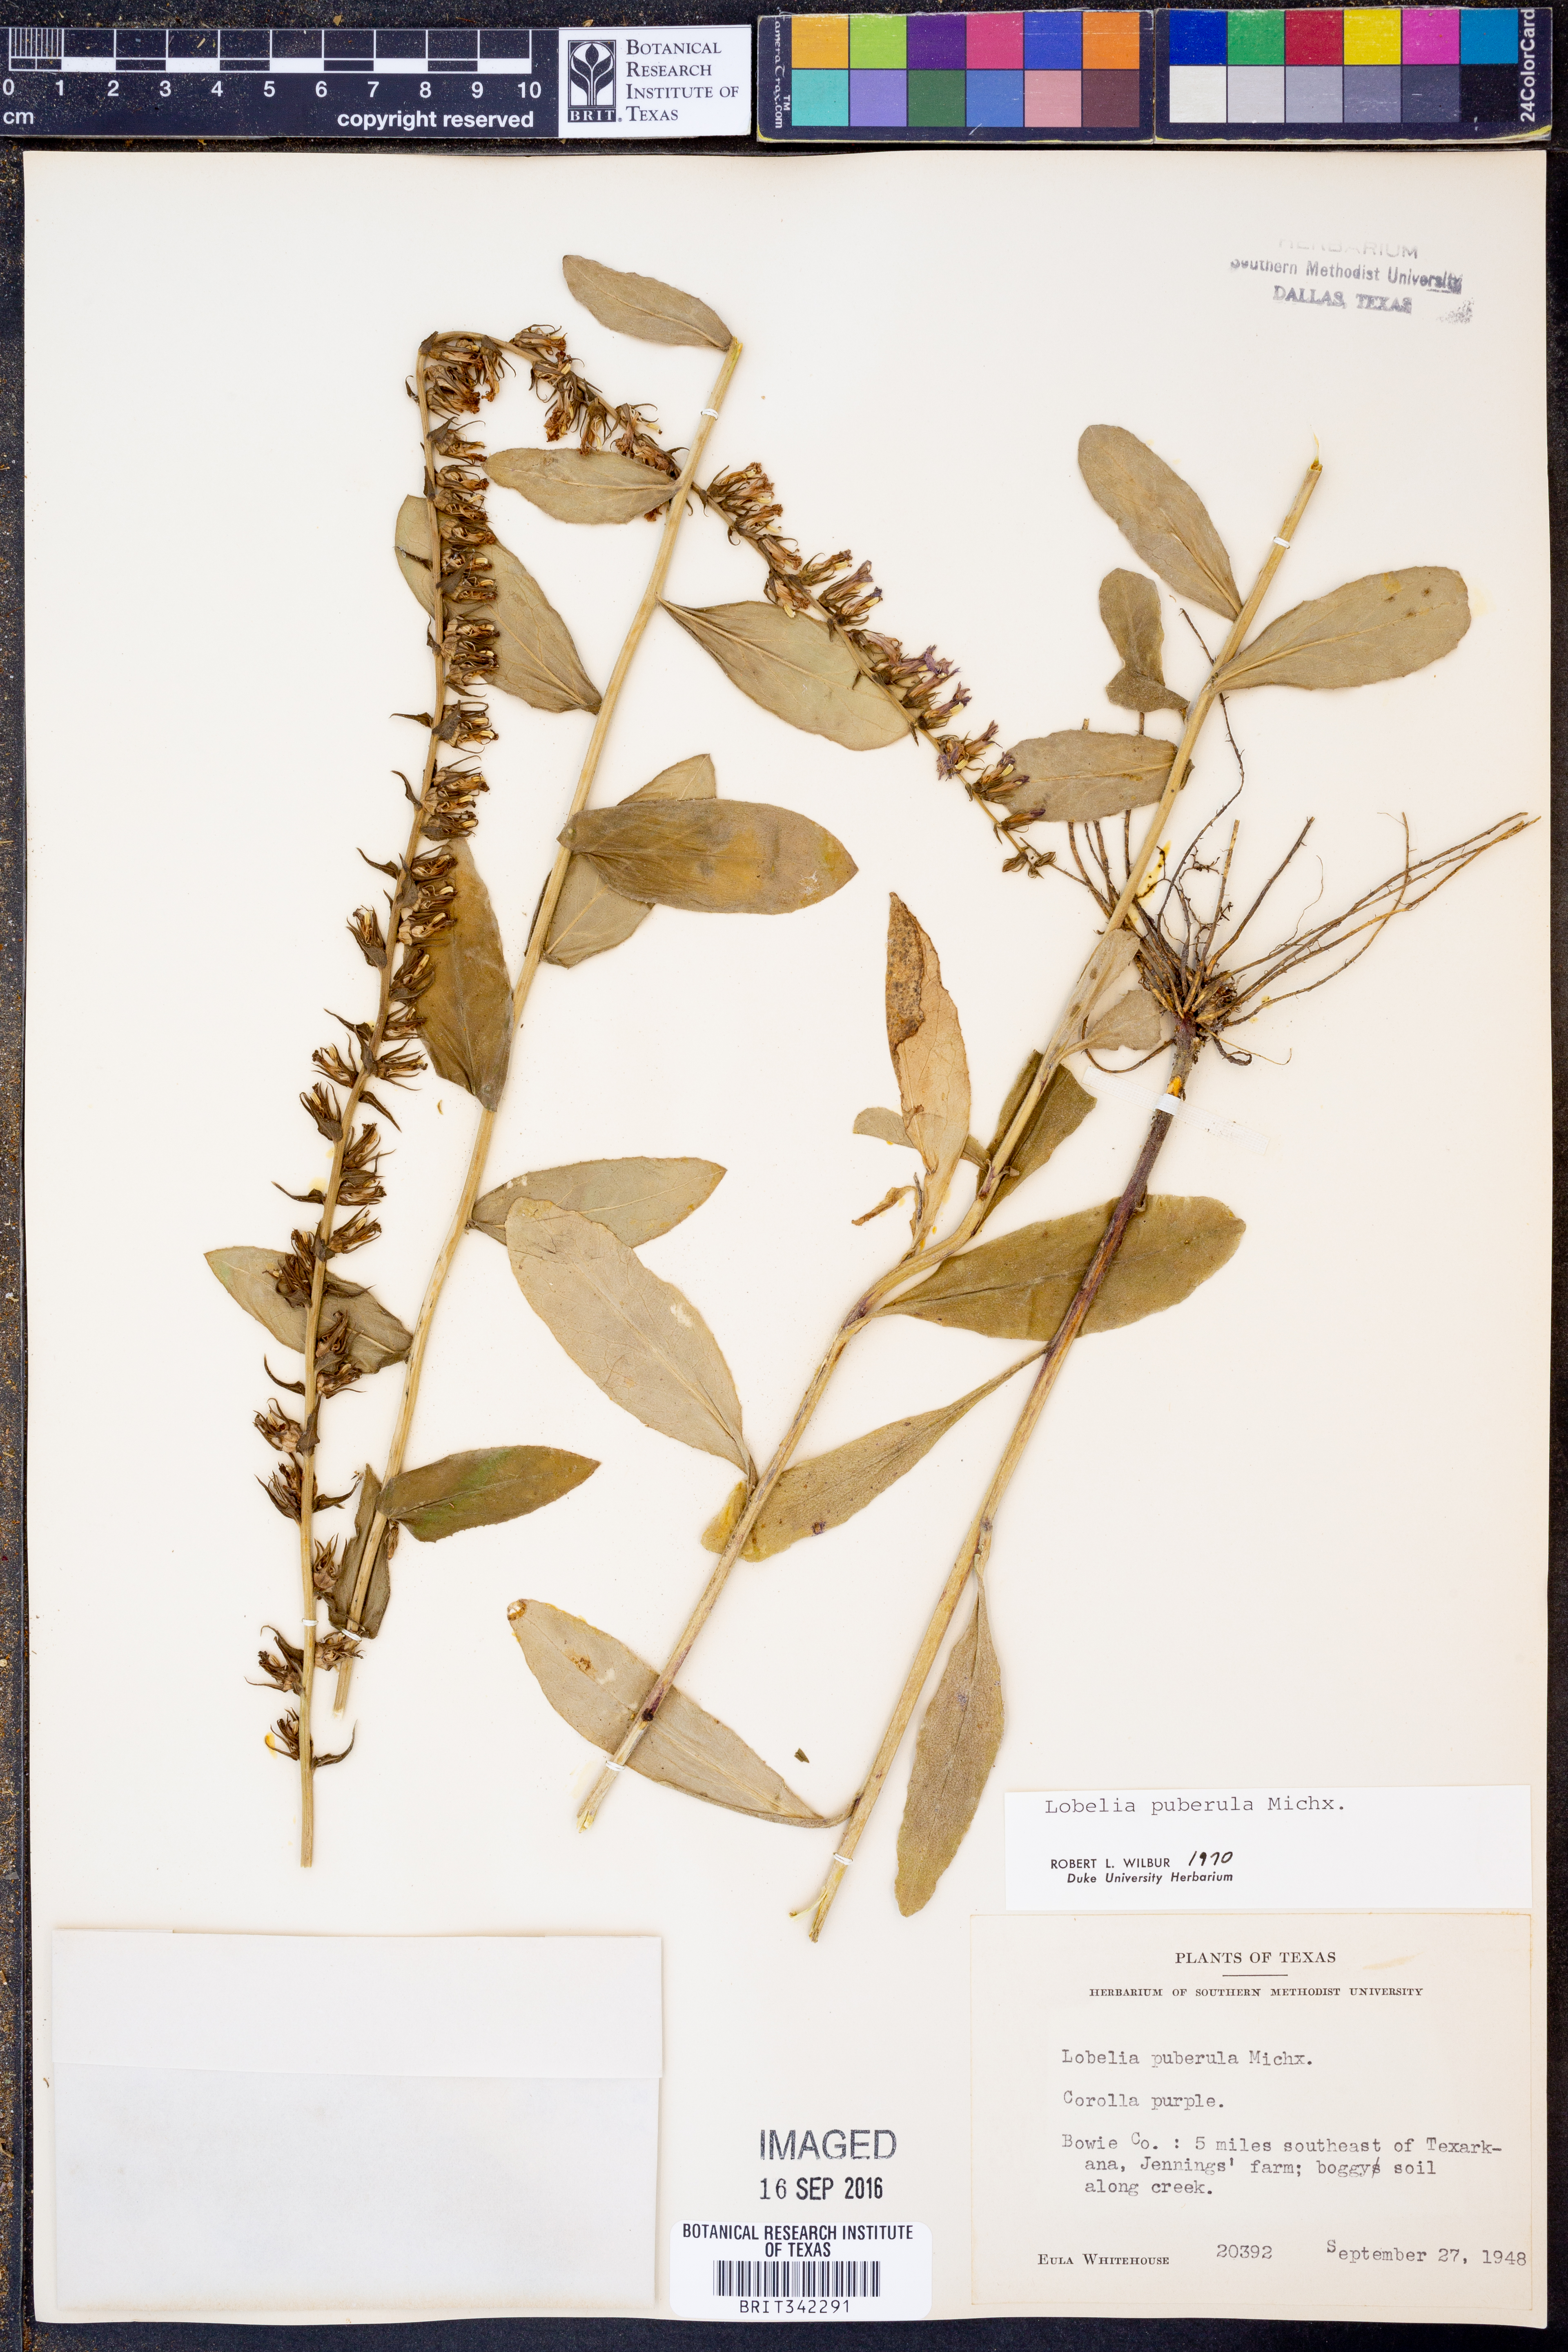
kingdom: Plantae
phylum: Tracheophyta
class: Magnoliopsida
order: Asterales
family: Campanulaceae
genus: Lobelia
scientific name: Lobelia puberula
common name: Purple dewdrop
